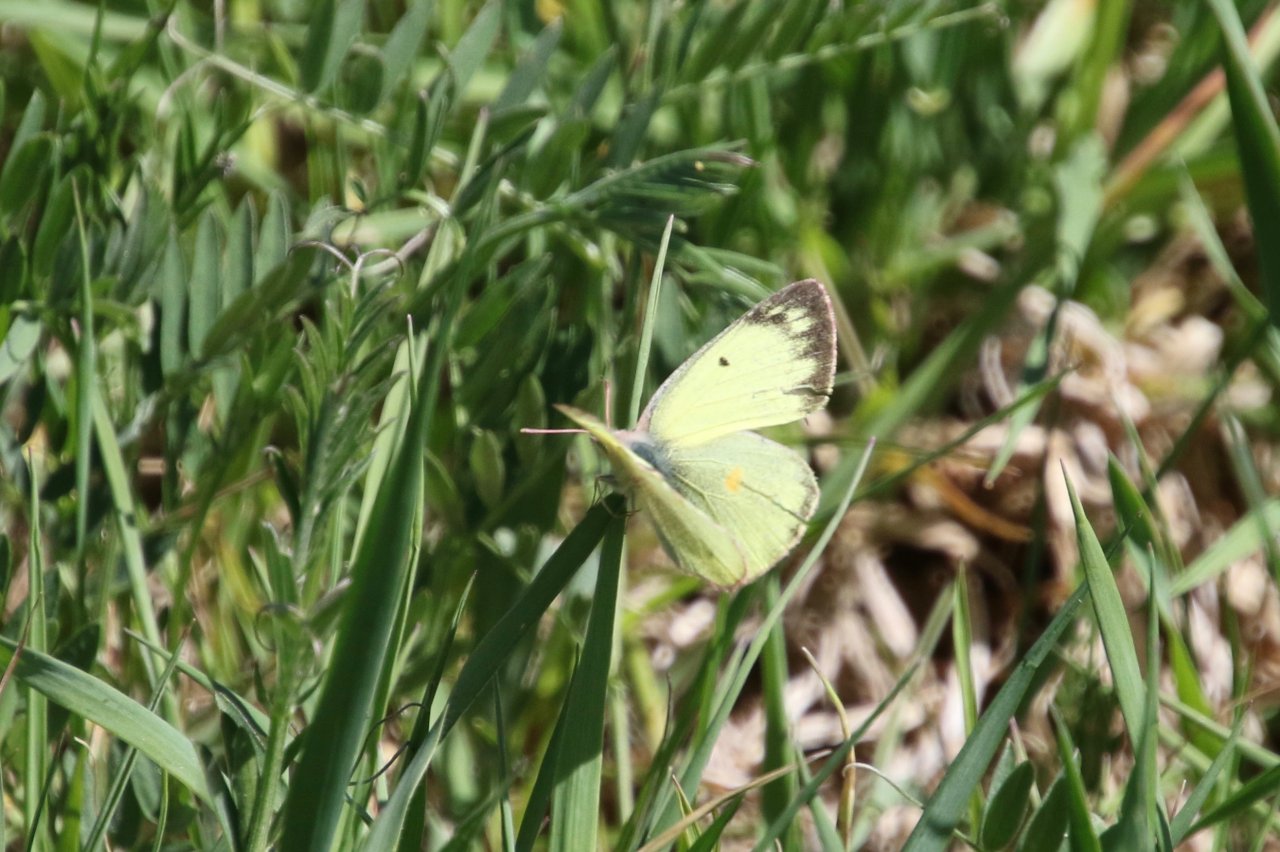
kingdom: Animalia
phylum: Arthropoda
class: Insecta
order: Lepidoptera
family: Pieridae
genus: Colias
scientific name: Colias philodice
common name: Clouded Sulphur
